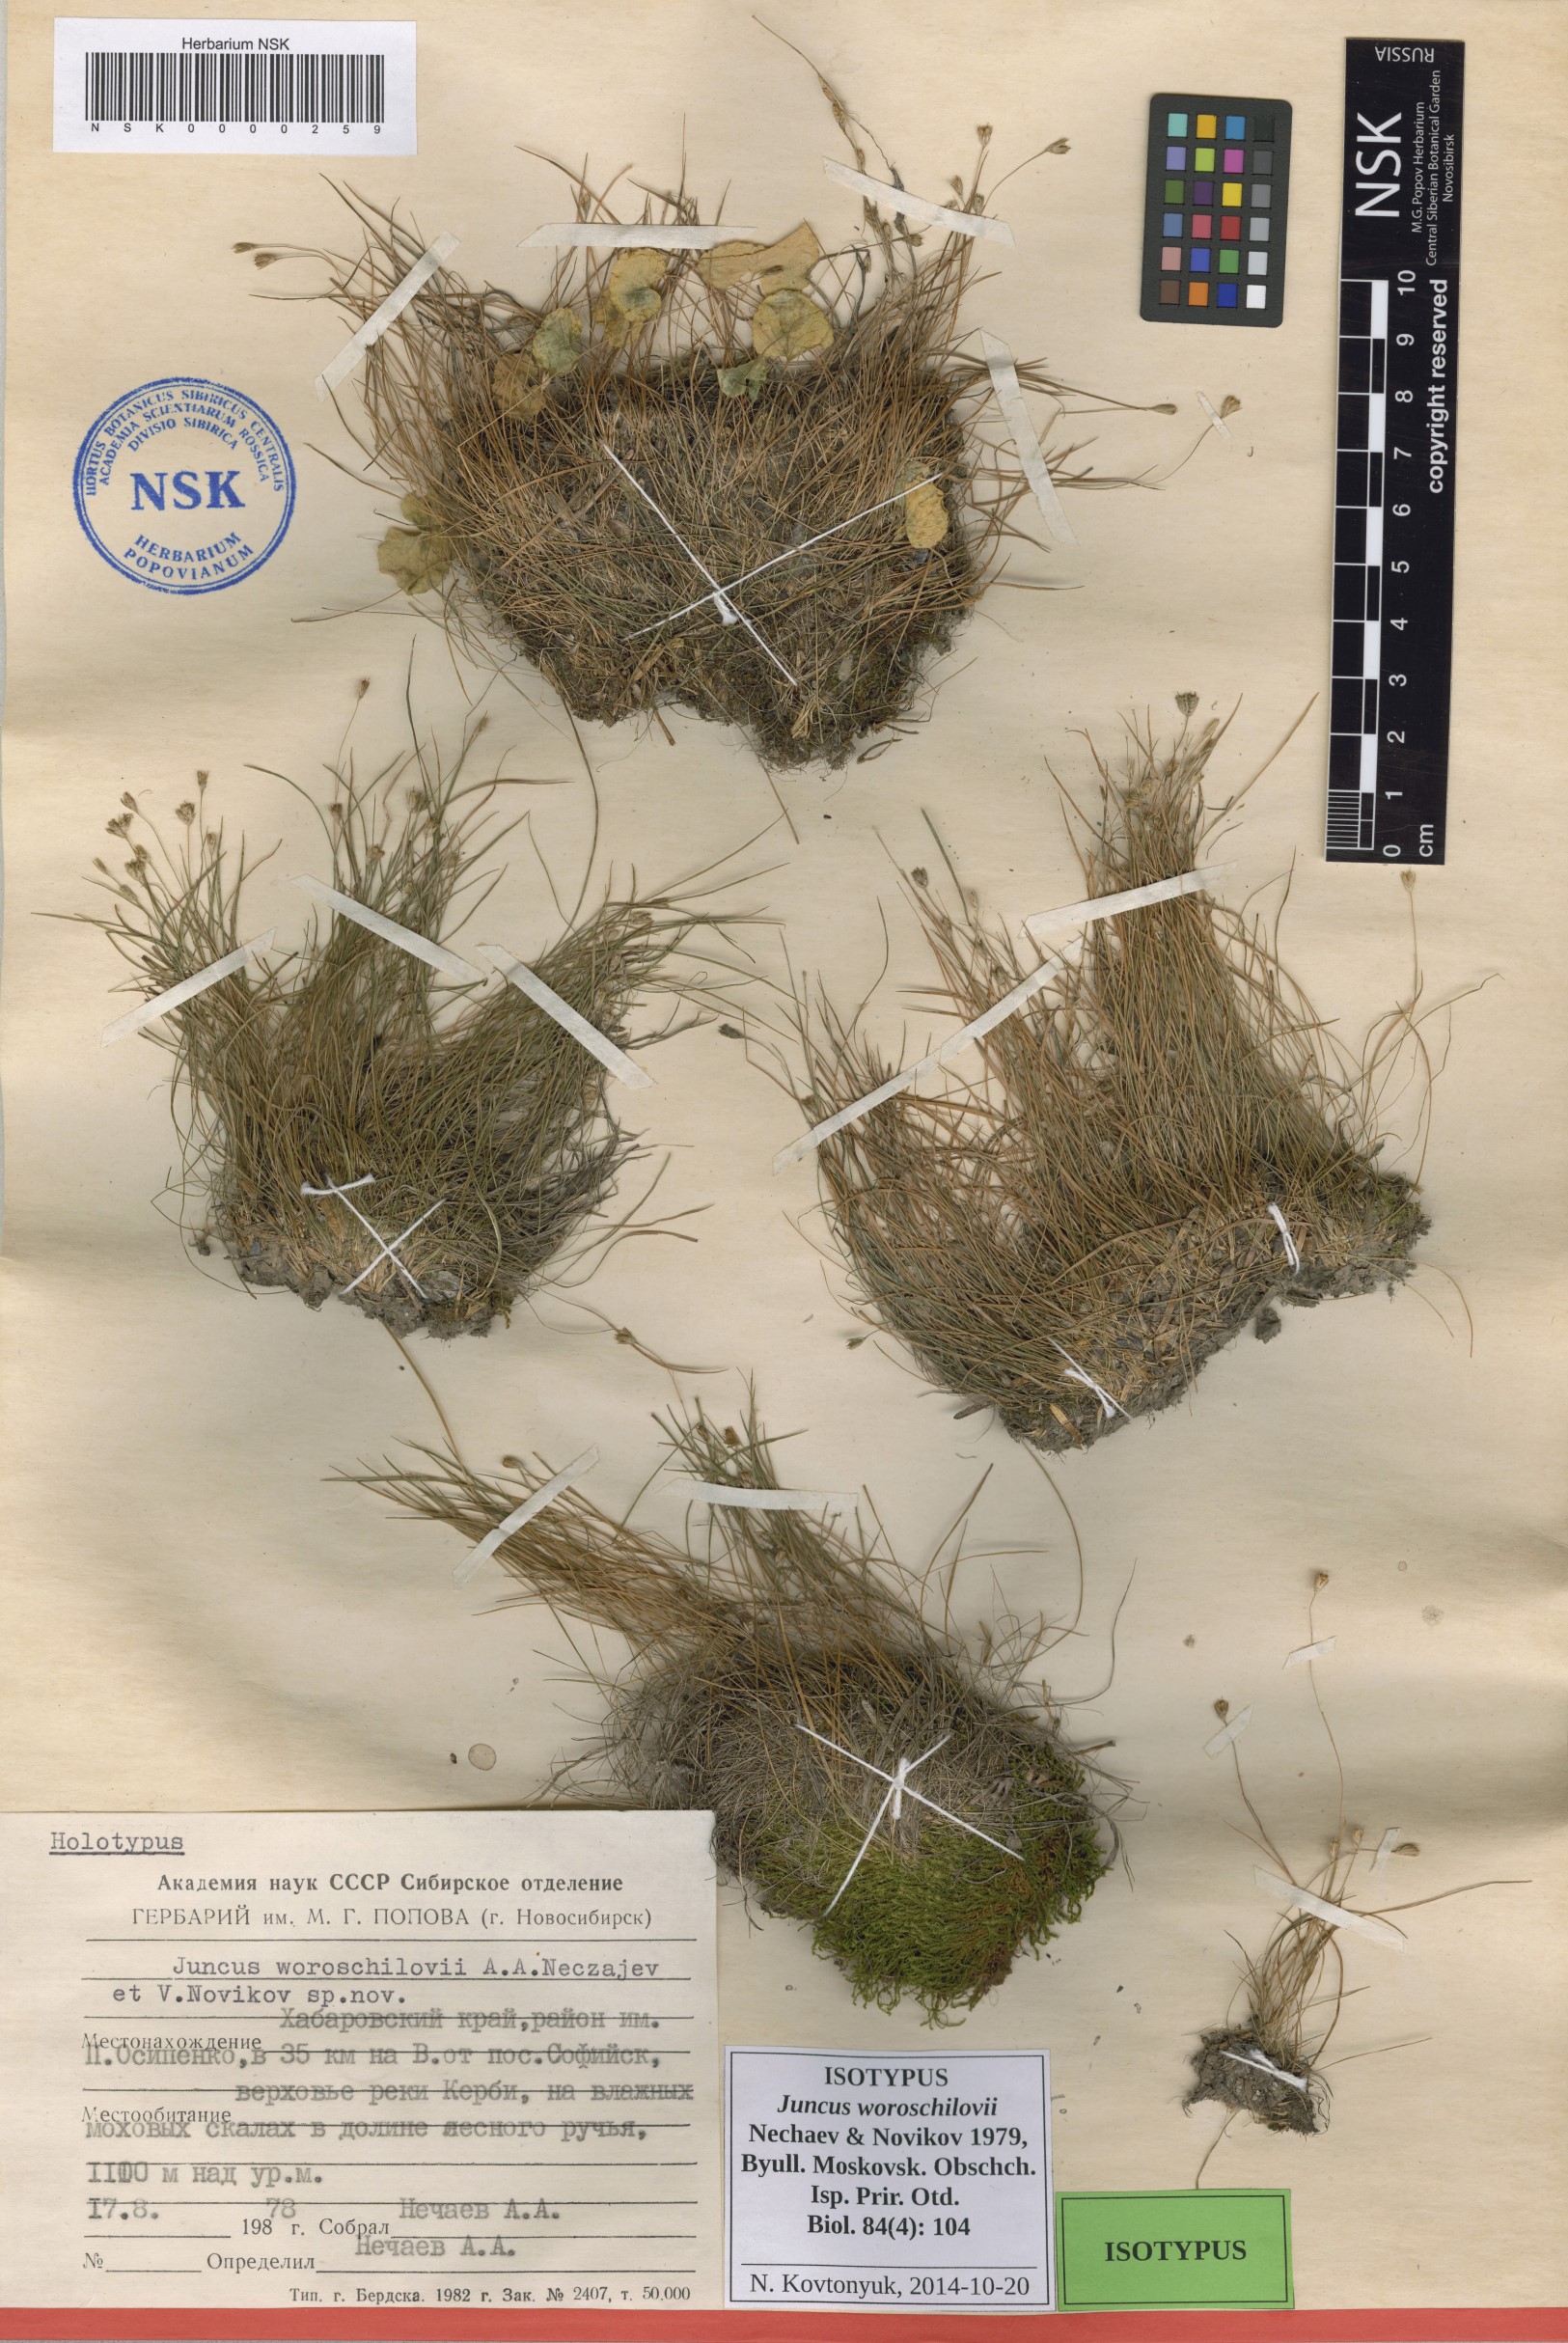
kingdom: Plantae
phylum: Tracheophyta
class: Liliopsida
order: Poales
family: Juncaceae
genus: Juncus
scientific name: Juncus potaninii
